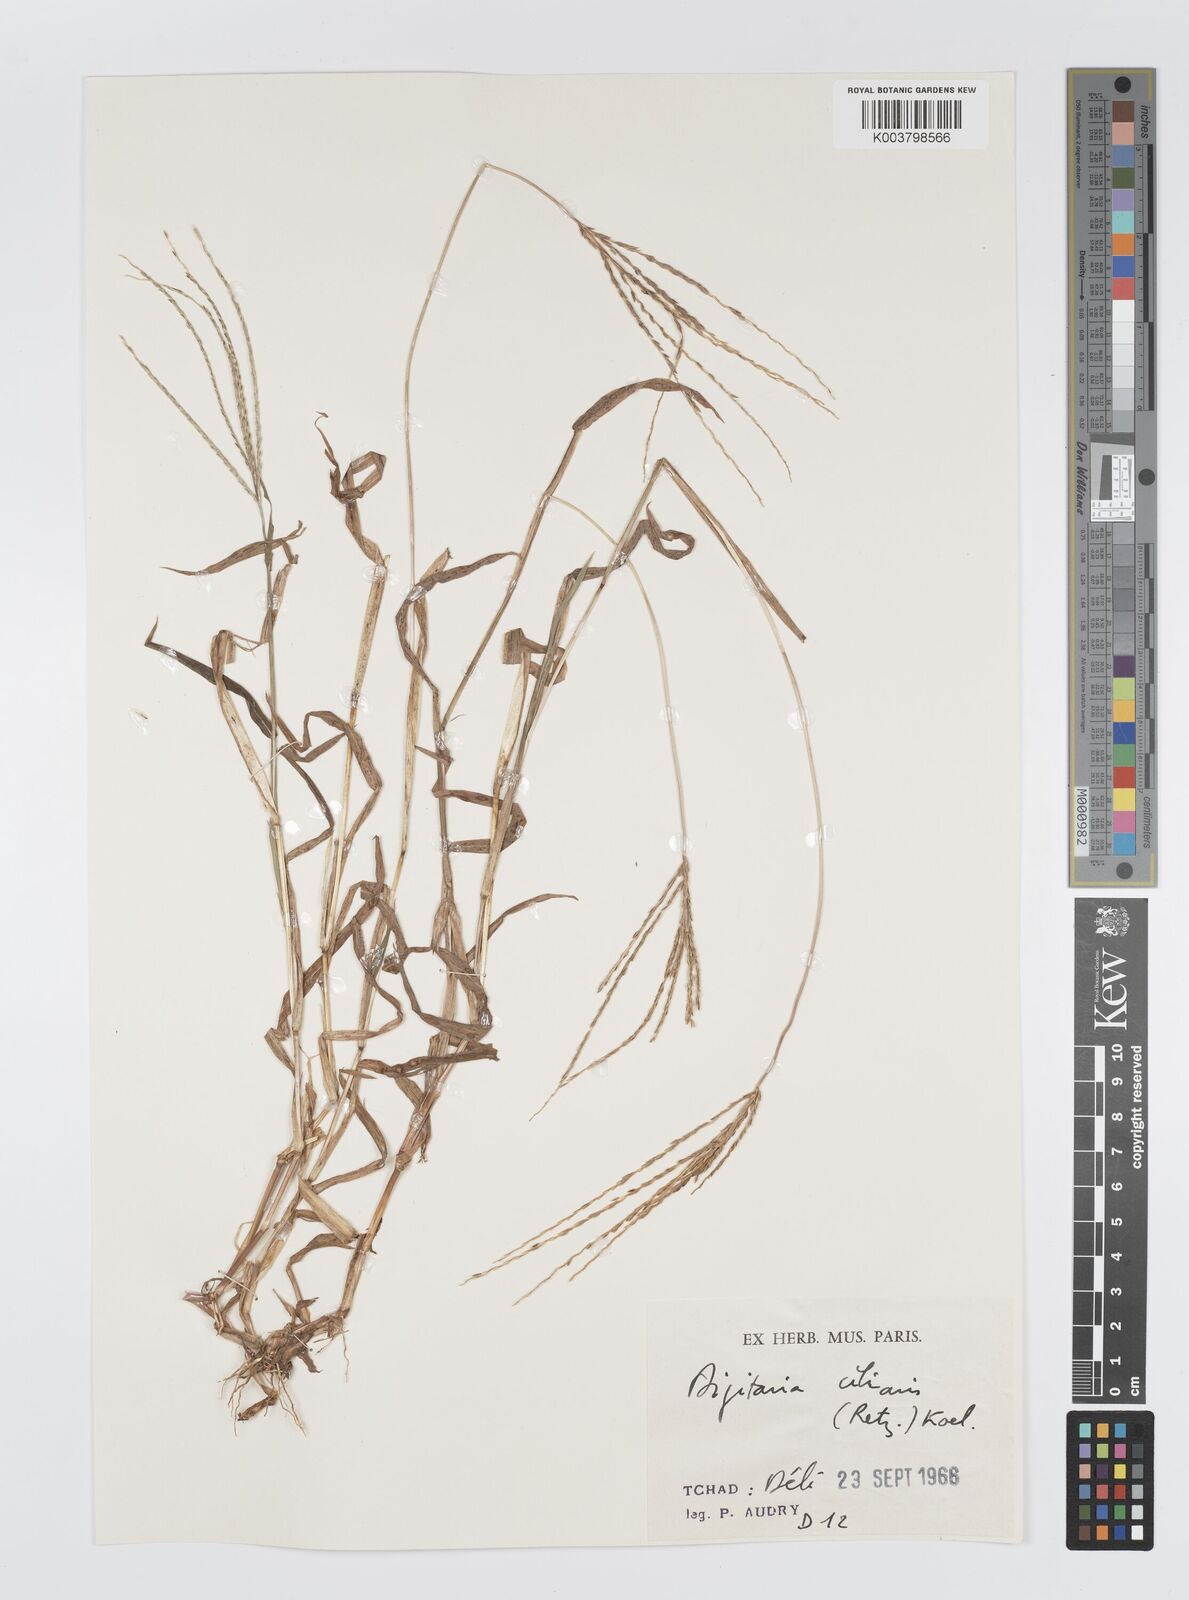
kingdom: Plantae
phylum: Tracheophyta
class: Liliopsida
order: Poales
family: Poaceae
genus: Digitaria
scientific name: Digitaria nuda
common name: Naked crabgrass
